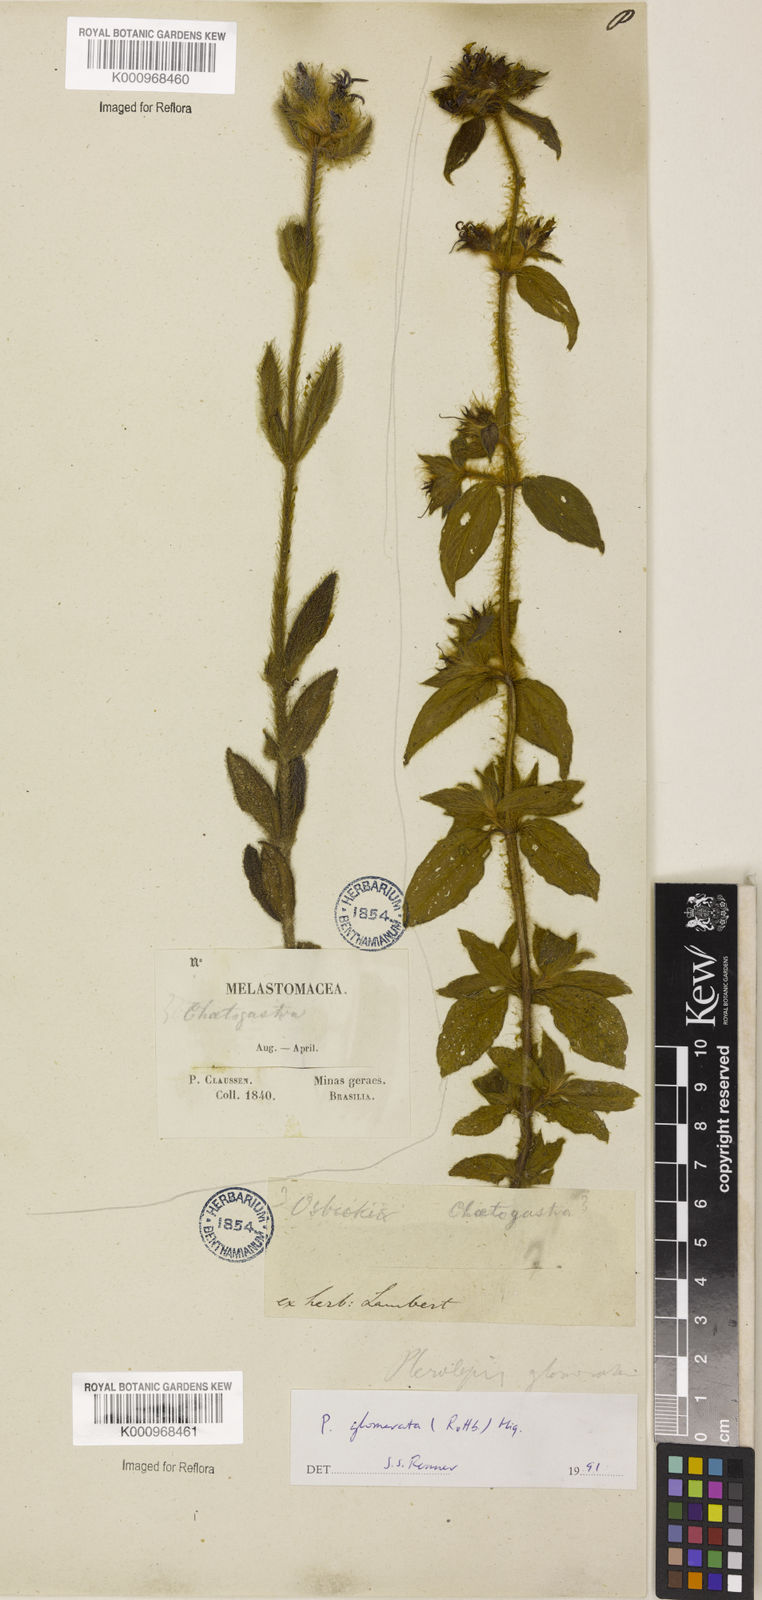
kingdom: Plantae
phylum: Tracheophyta
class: Magnoliopsida
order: Myrtales
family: Melastomataceae
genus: Pterolepis
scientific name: Pterolepis glomerata
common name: False meadowbeauty
